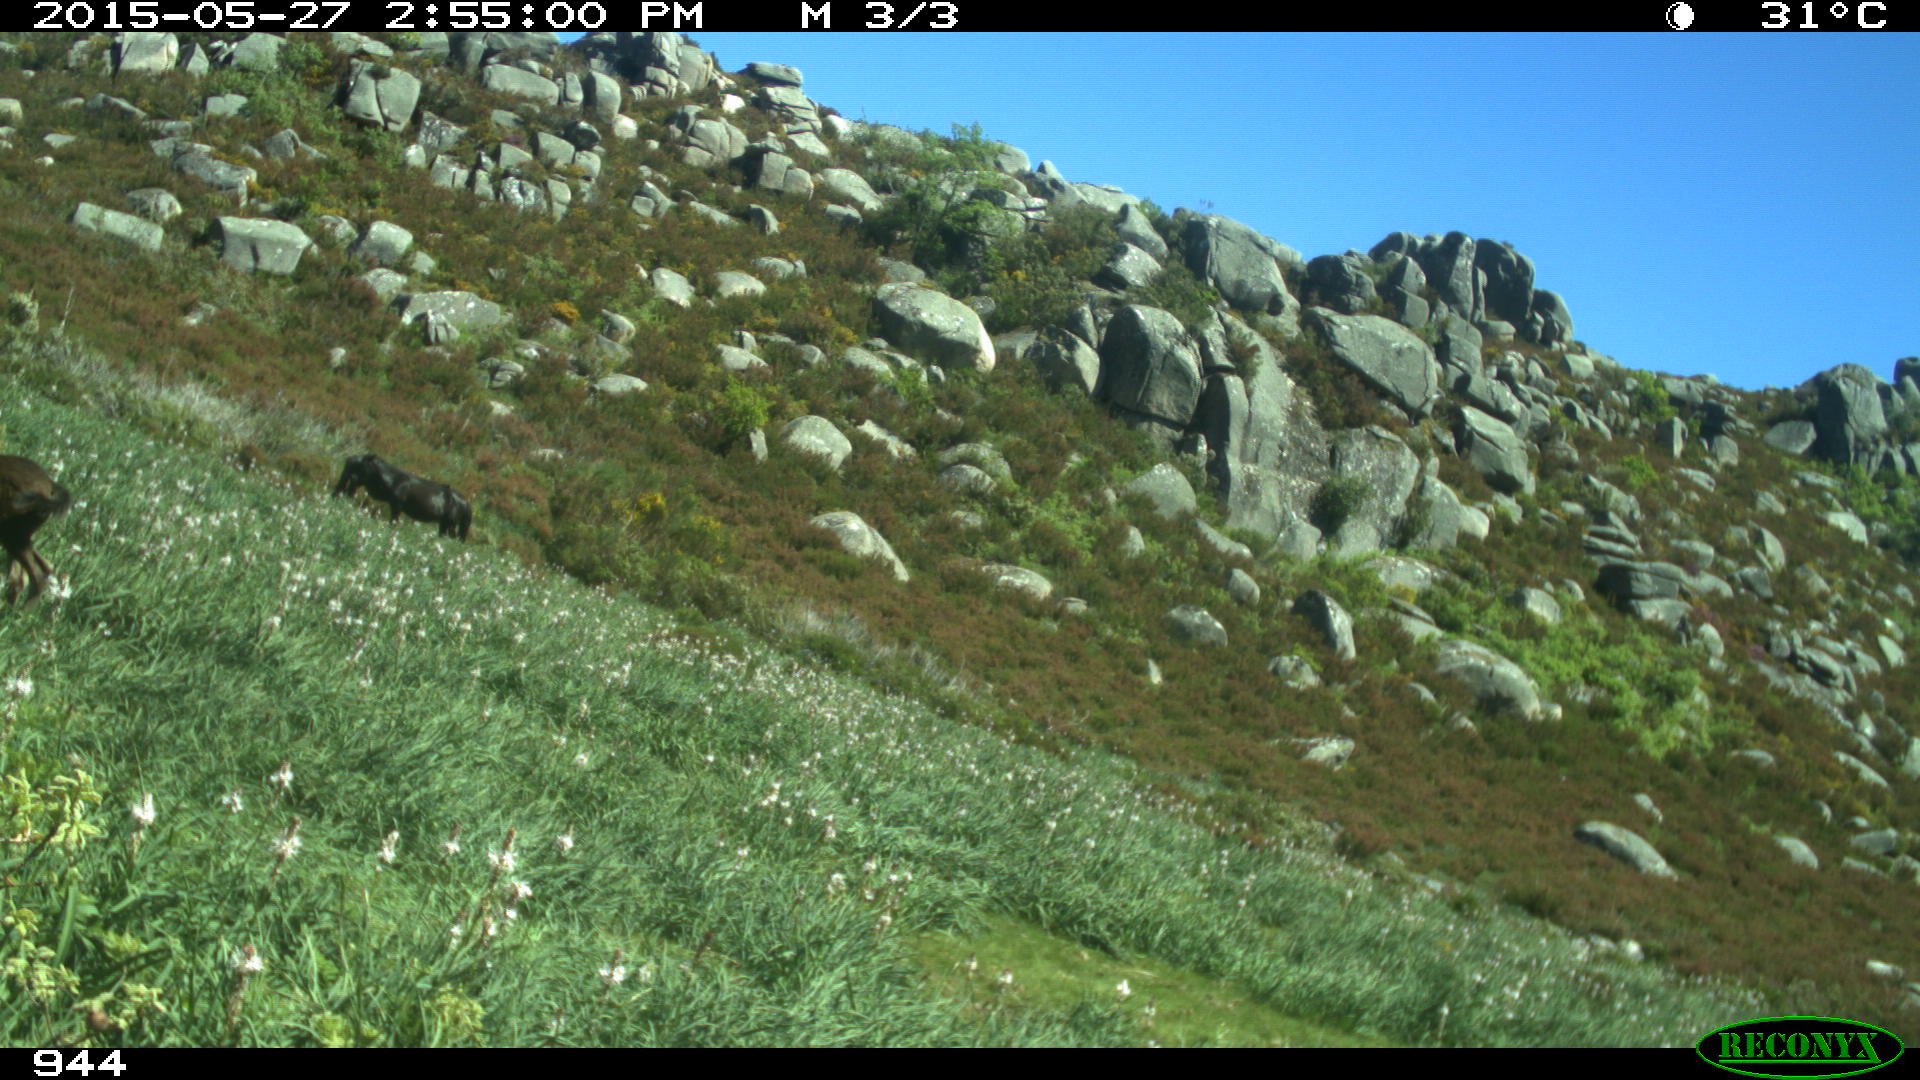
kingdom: Animalia
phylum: Chordata
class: Mammalia
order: Perissodactyla
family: Equidae
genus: Equus
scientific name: Equus caballus
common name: Horse
